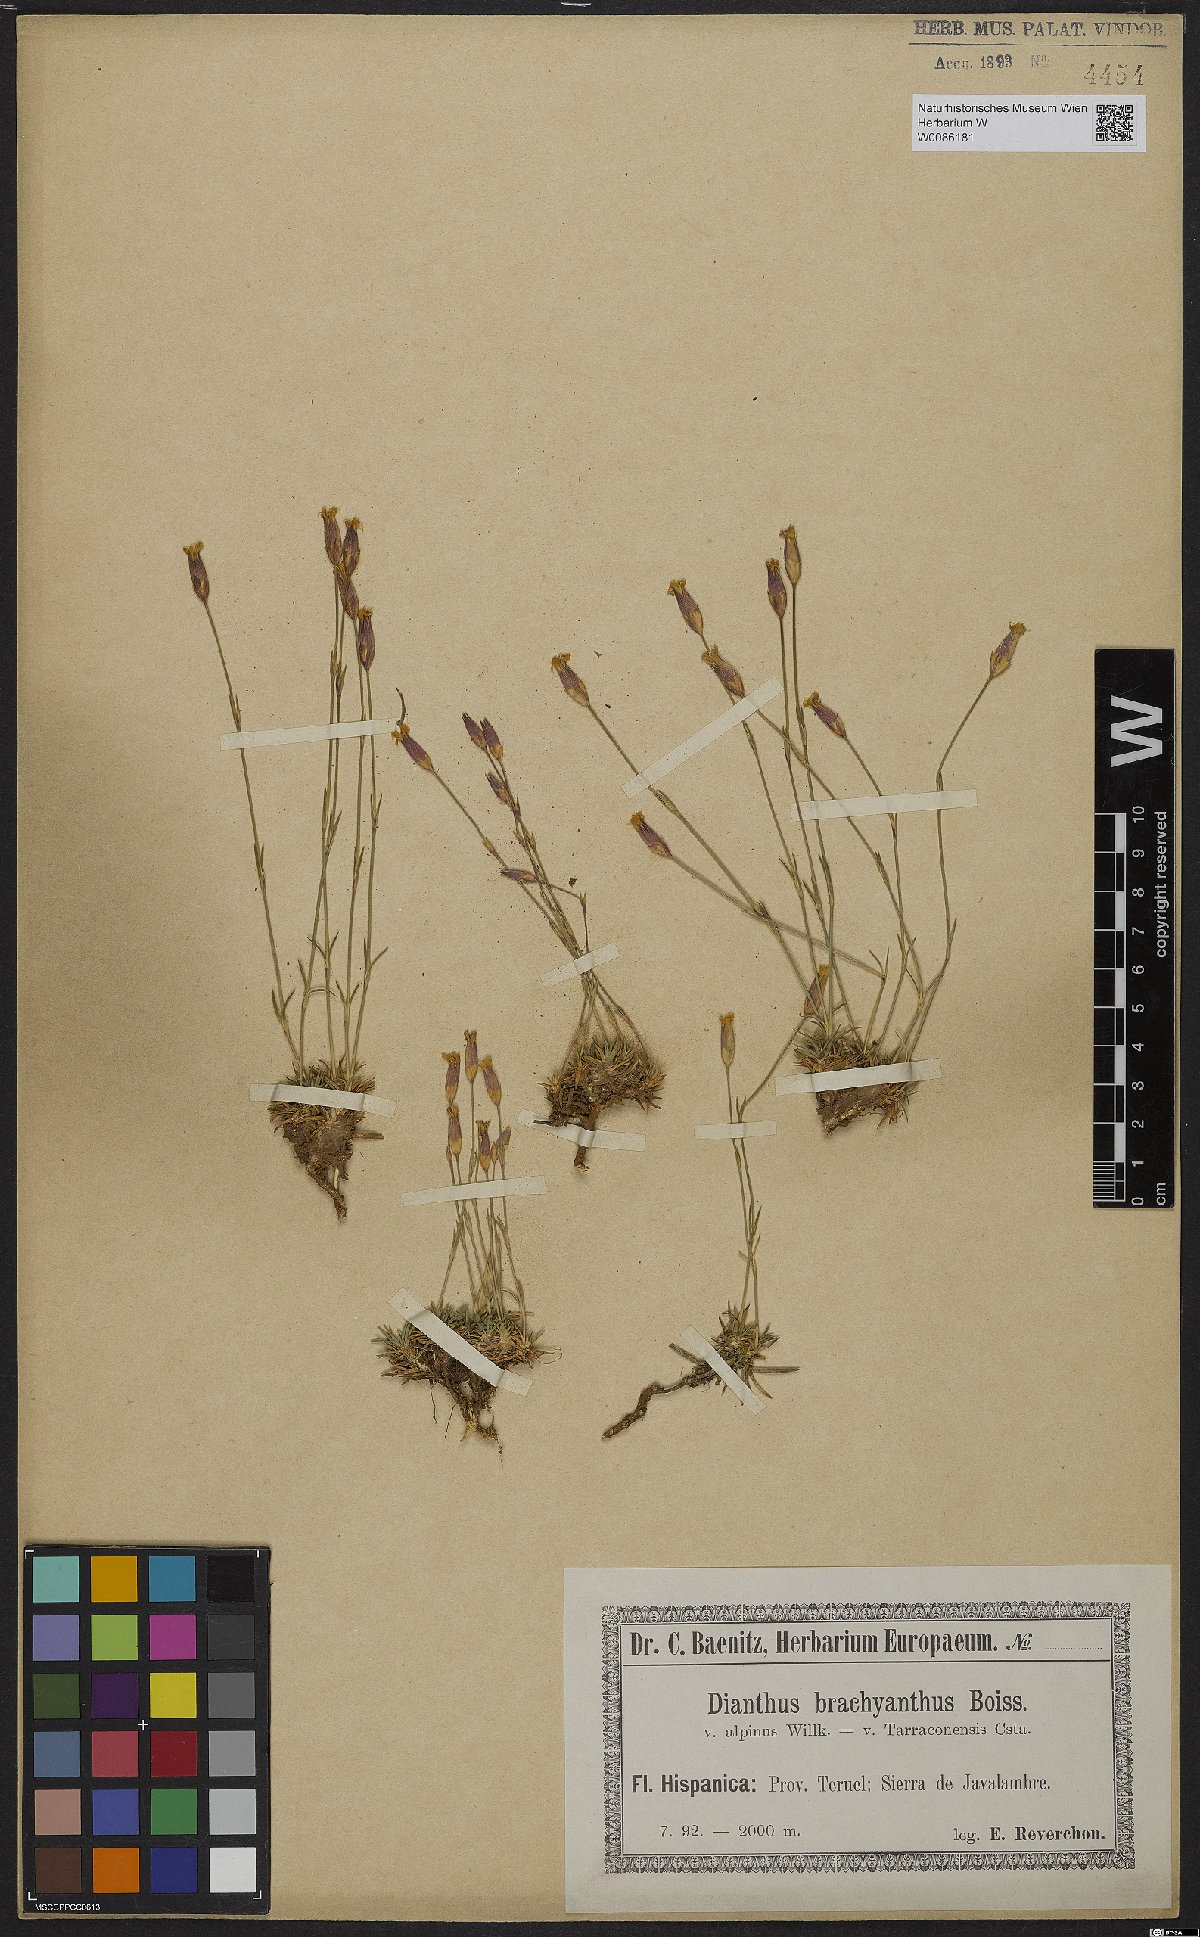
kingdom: Plantae
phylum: Tracheophyta
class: Magnoliopsida
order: Caryophyllales
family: Caryophyllaceae
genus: Dianthus
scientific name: Dianthus subacaulis
